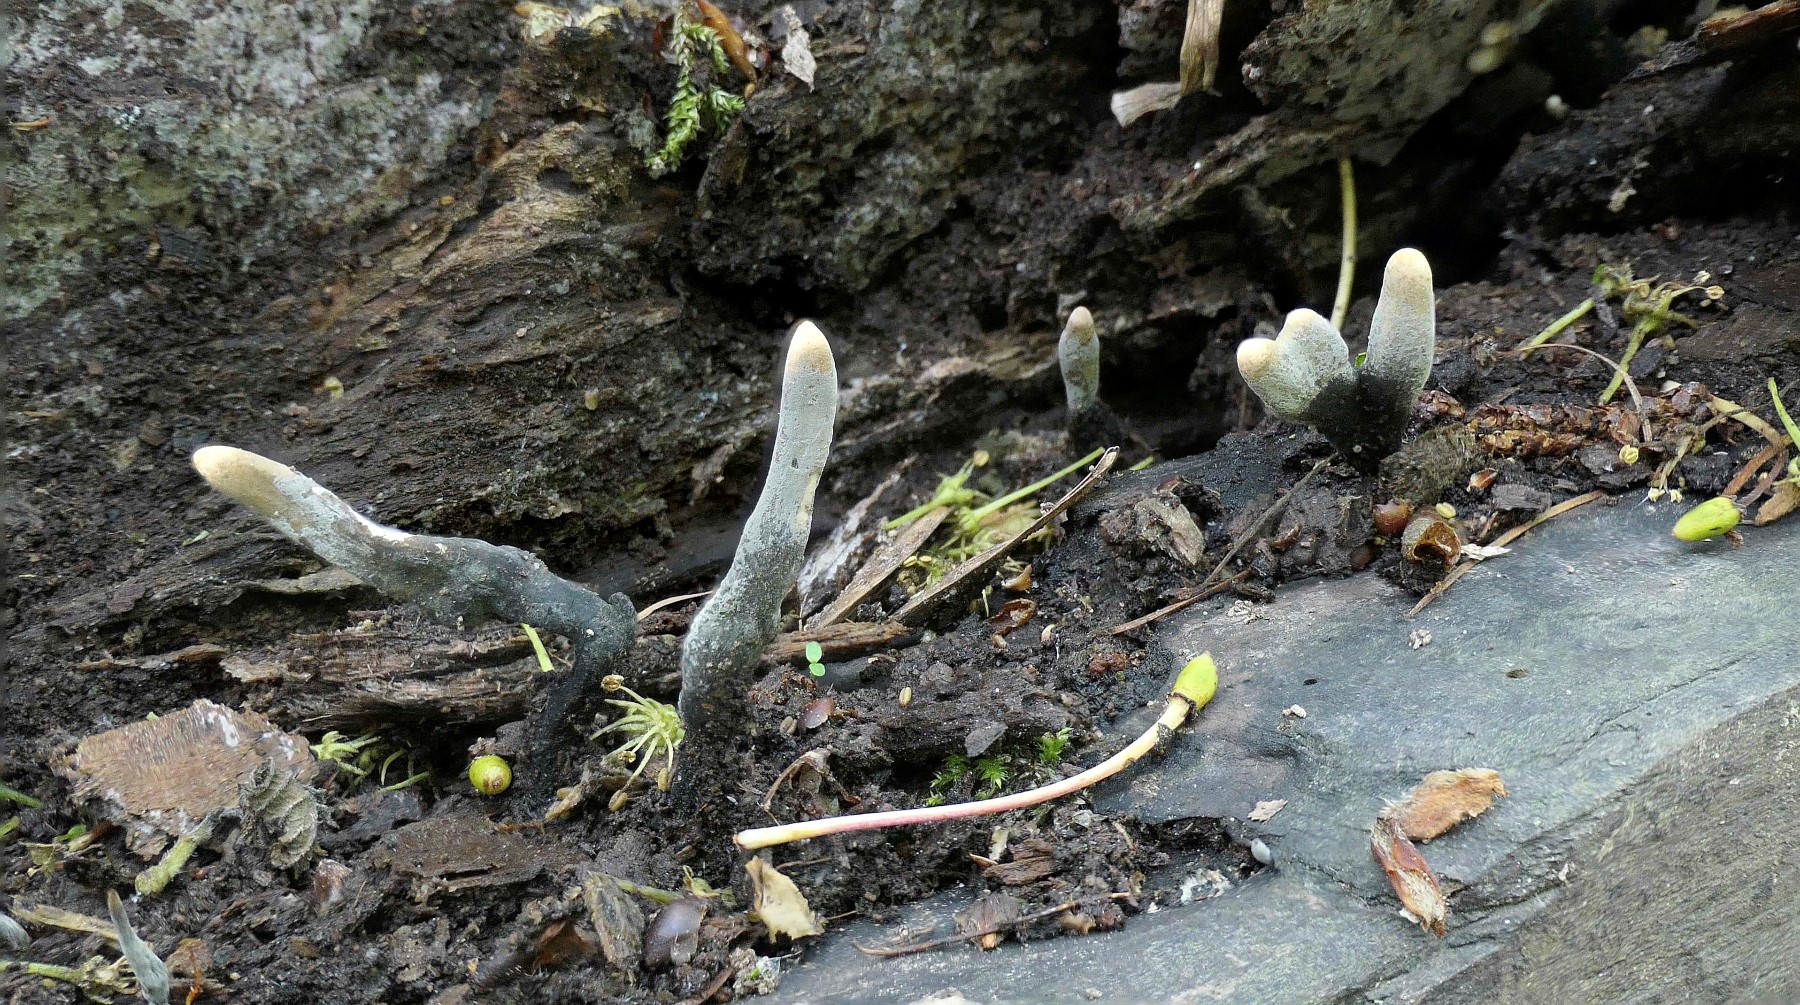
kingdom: Fungi
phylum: Ascomycota
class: Sordariomycetes
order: Xylariales
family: Xylariaceae
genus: Xylaria
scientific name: Xylaria longipes
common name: slank stødsvamp
